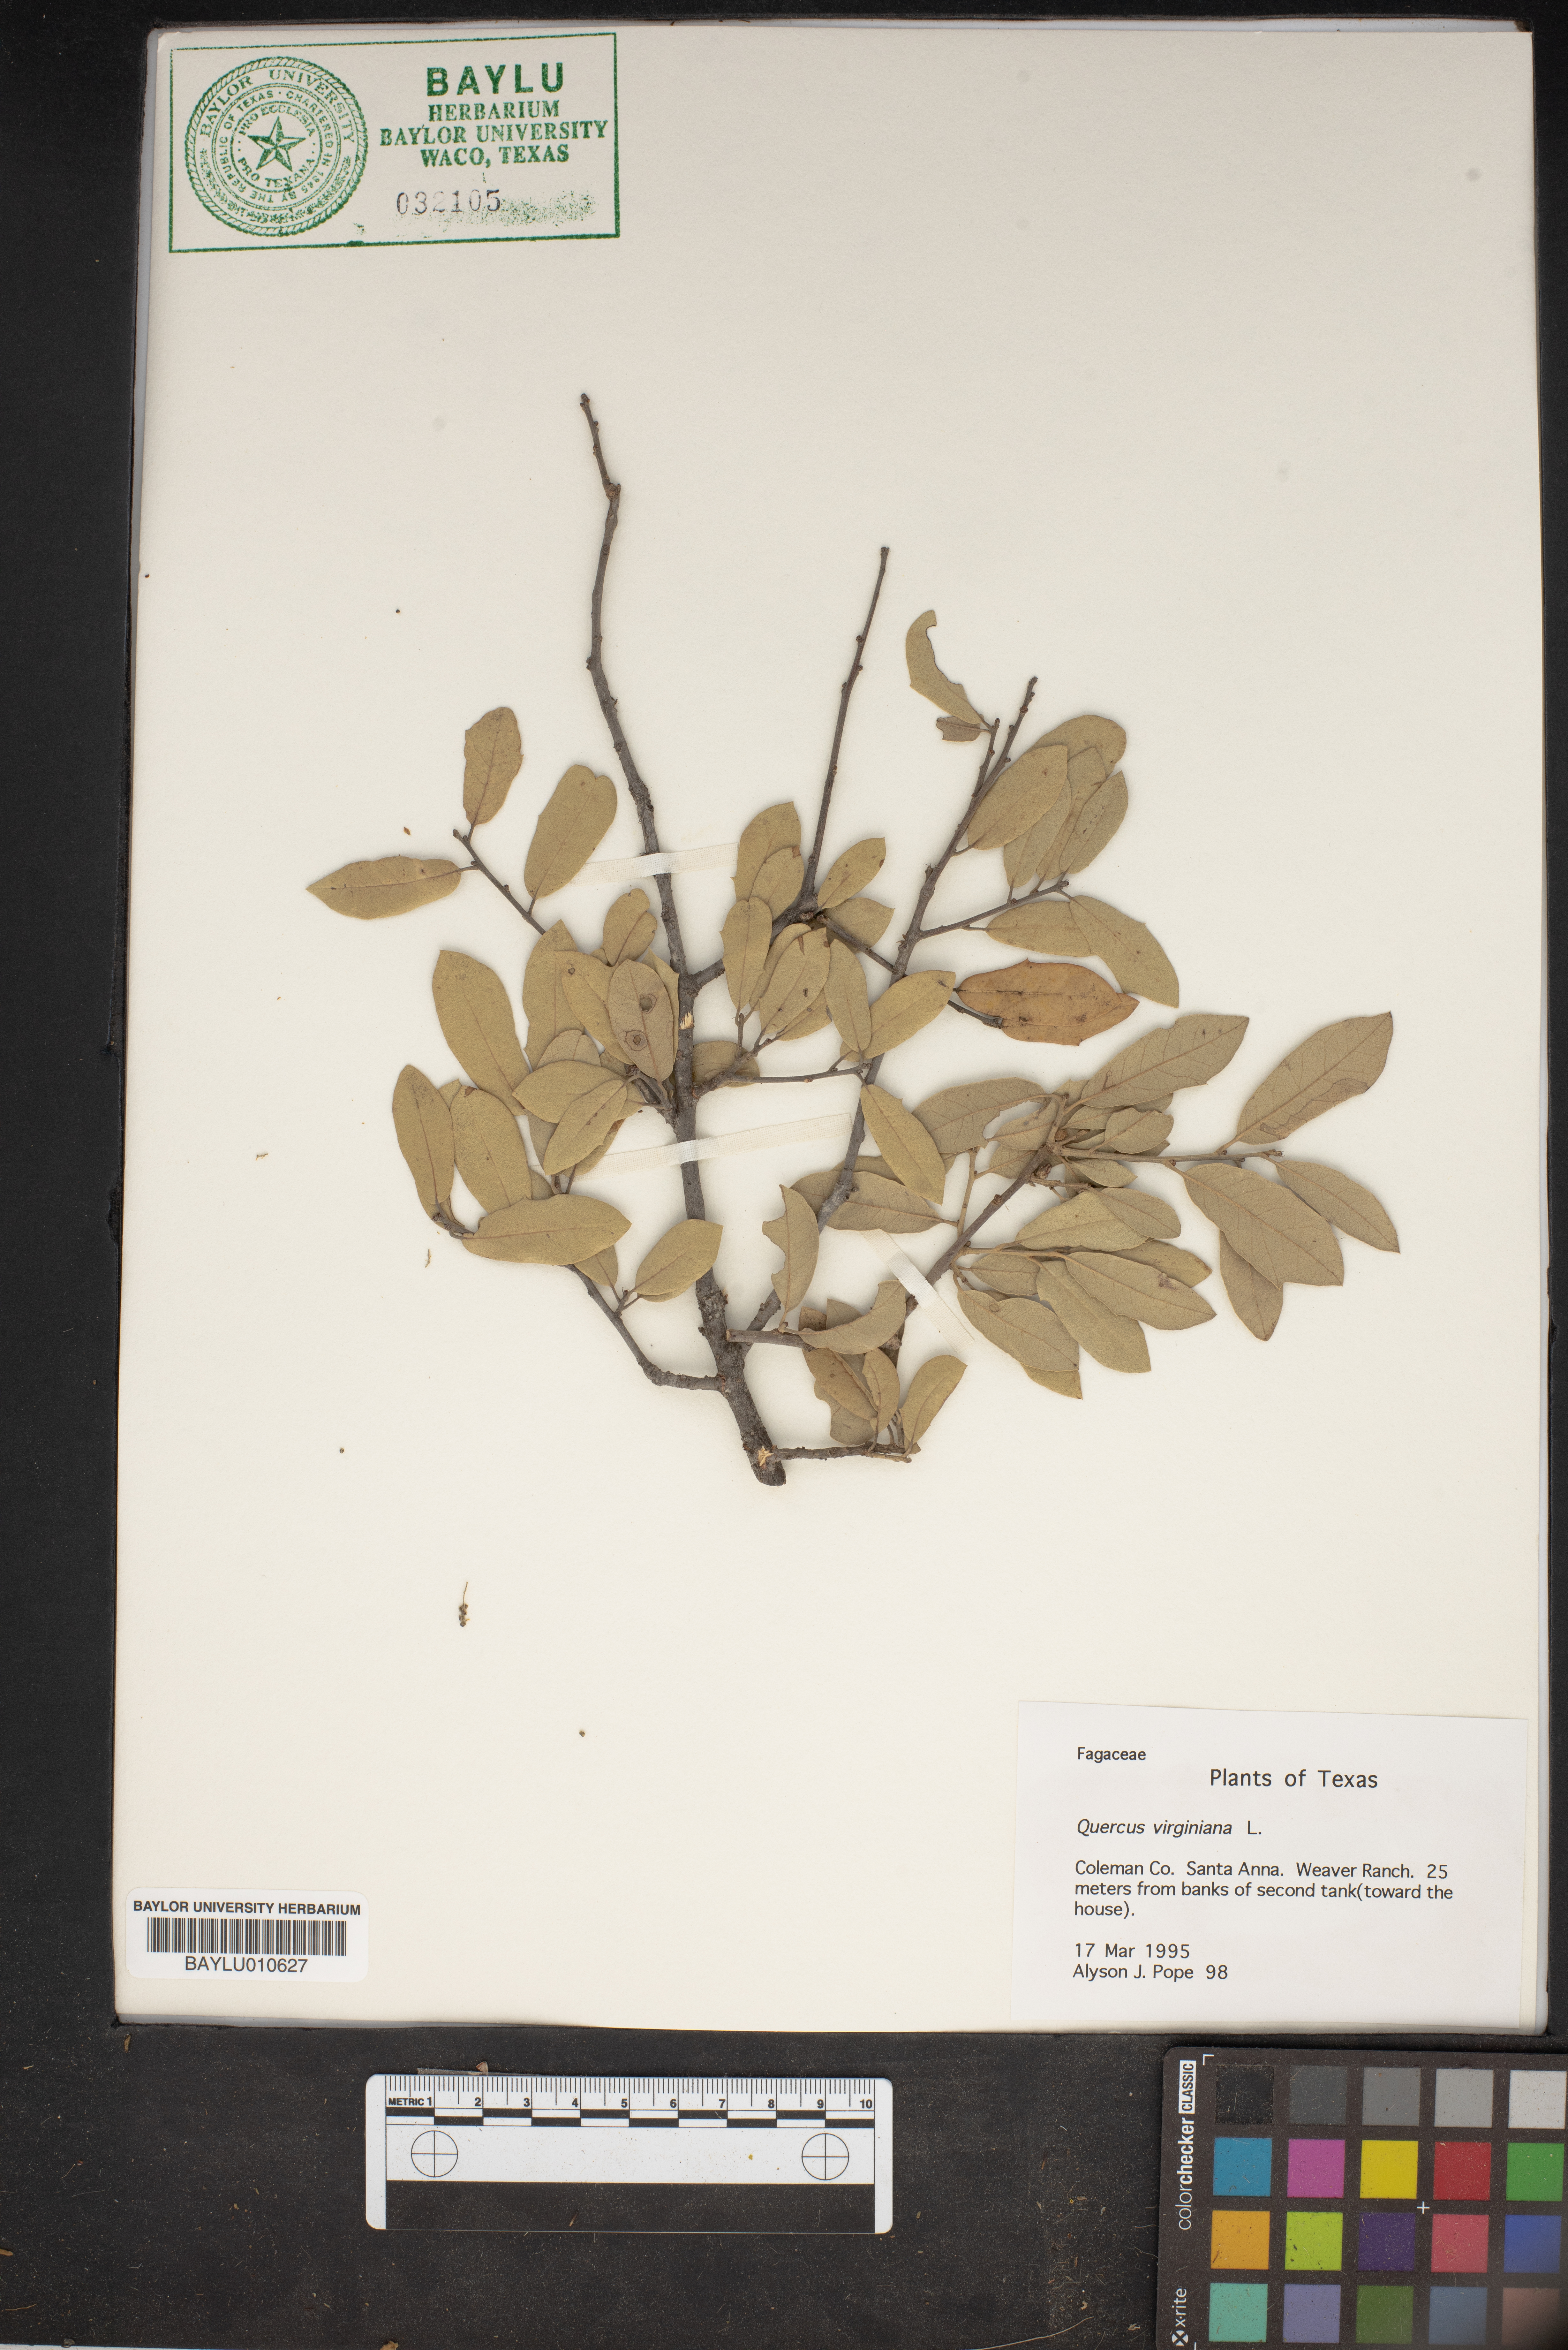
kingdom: Plantae
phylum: Tracheophyta
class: Magnoliopsida
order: Fagales
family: Fagaceae
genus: Quercus
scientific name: Quercus virginiana
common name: Southern live oak
